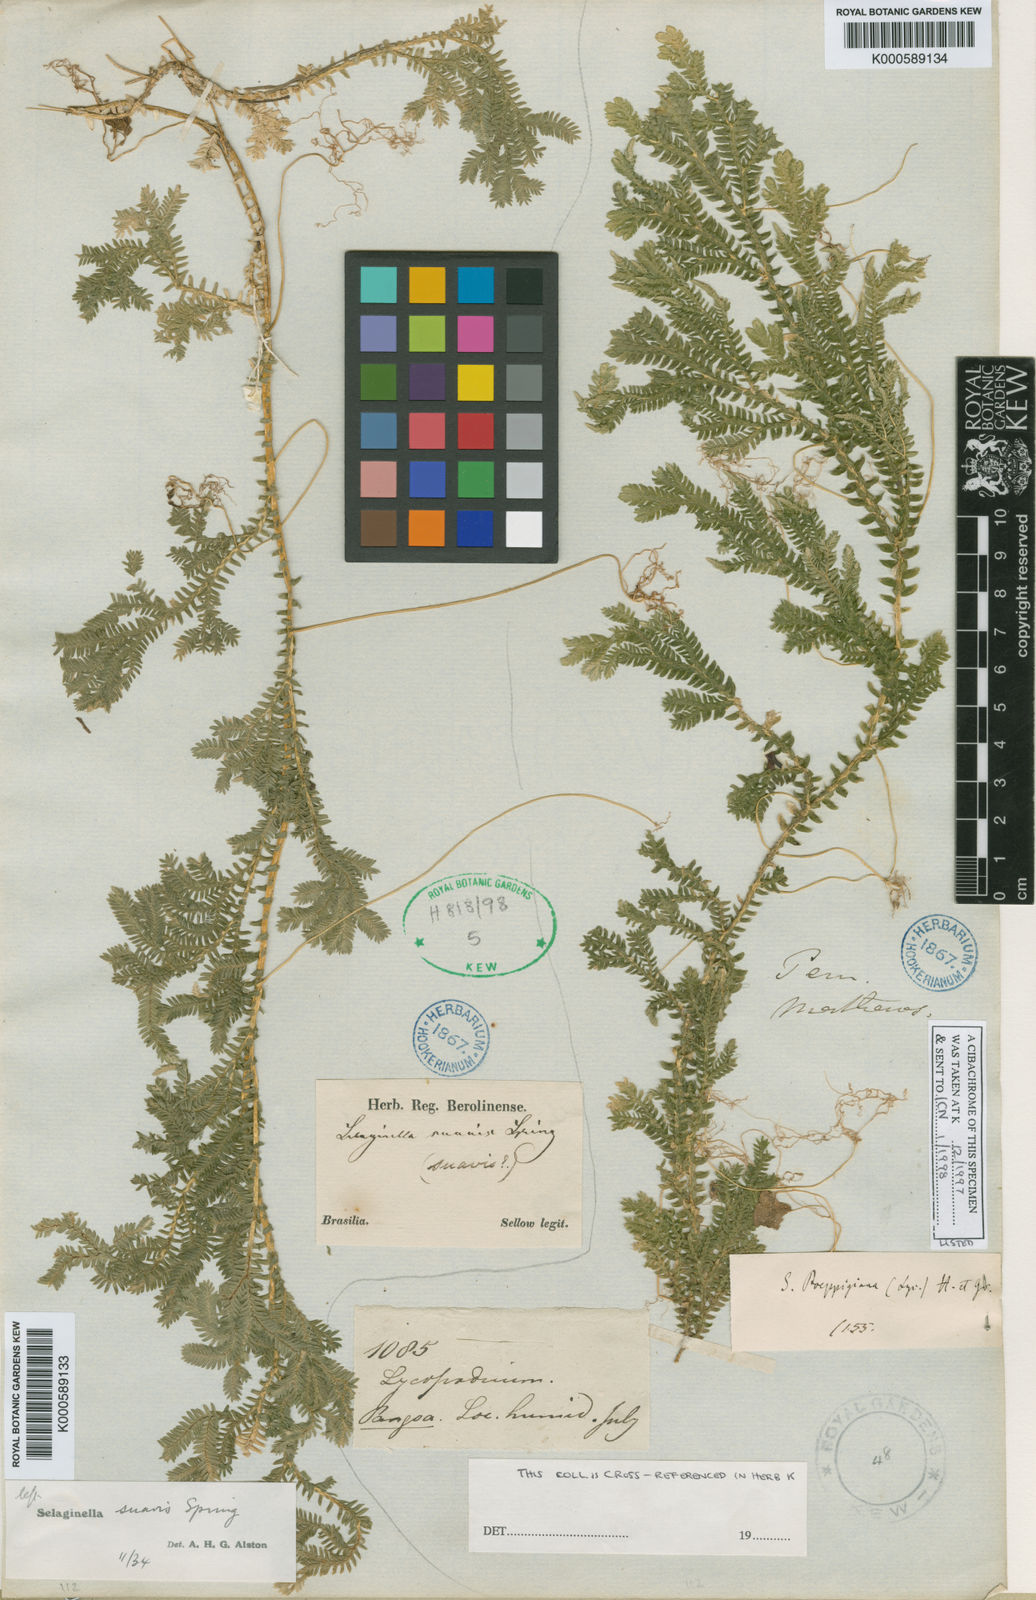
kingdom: Plantae
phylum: Tracheophyta
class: Lycopodiopsida
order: Selaginellales
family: Selaginellaceae
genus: Selaginella
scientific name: Selaginella
